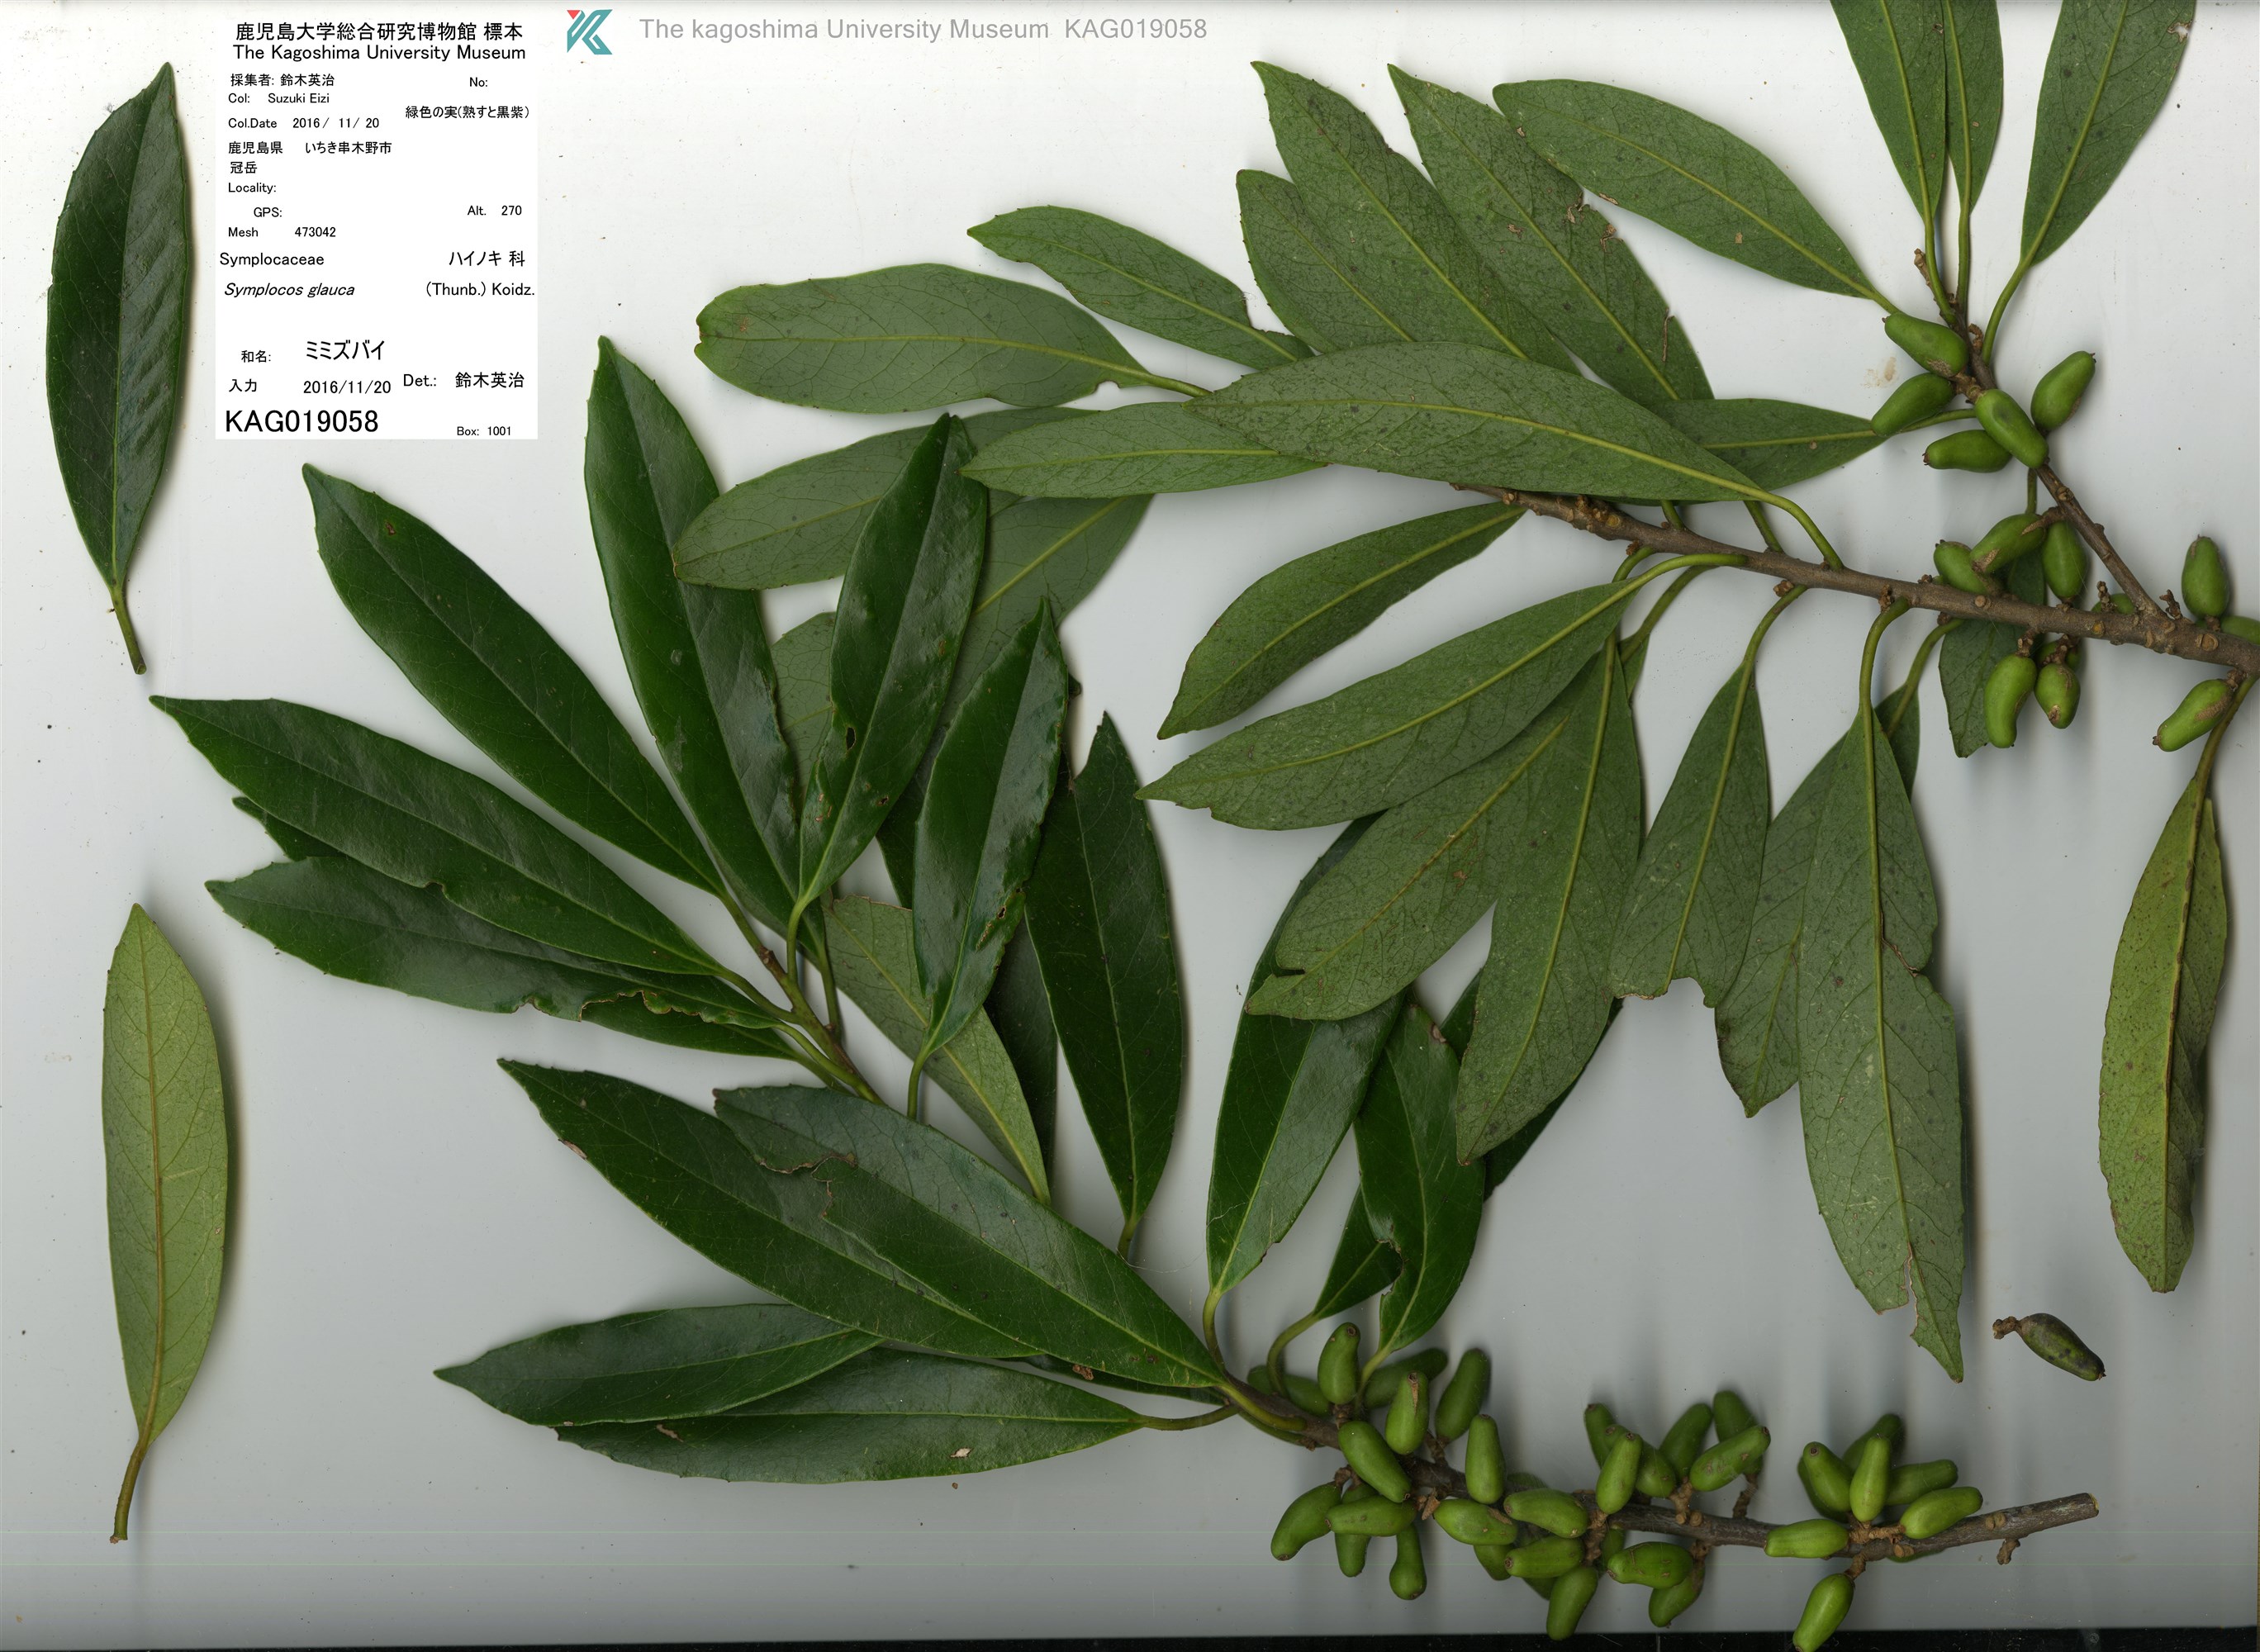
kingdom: Plantae
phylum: Tracheophyta
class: Magnoliopsida
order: Ericales
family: Symplocaceae
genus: Symplocos
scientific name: Symplocos glauca
